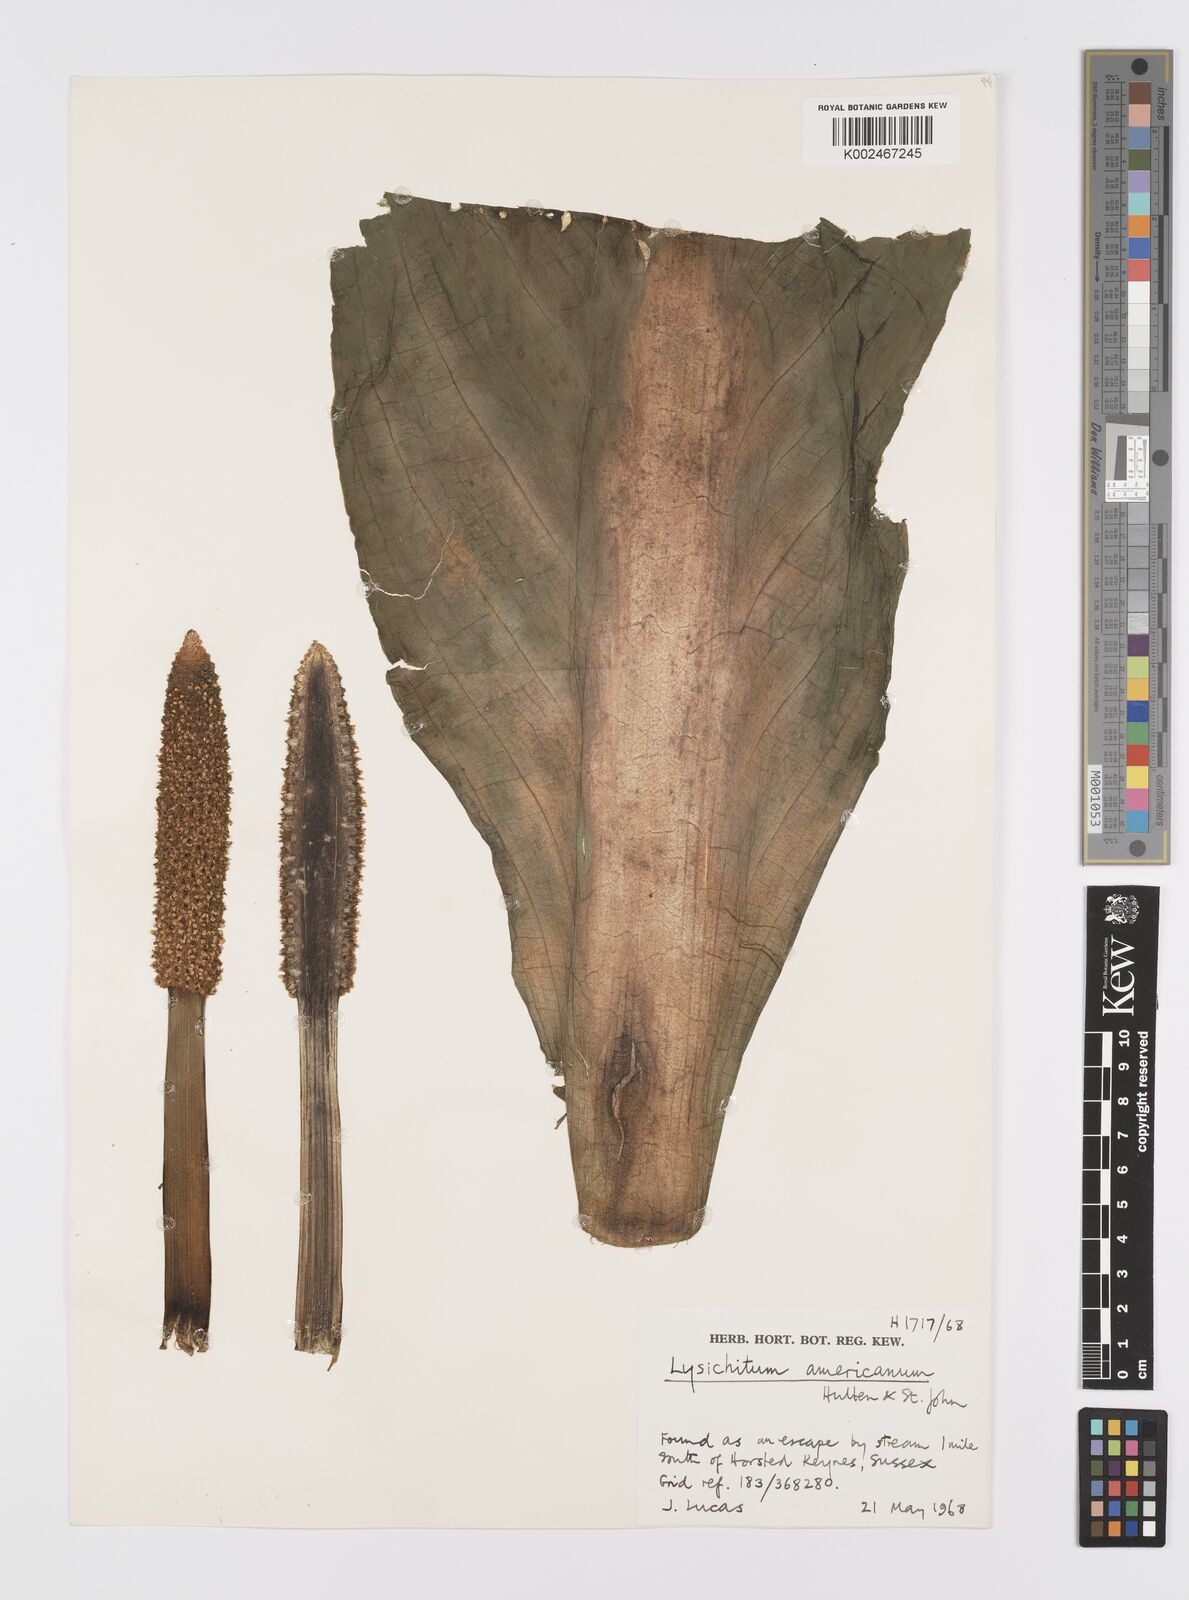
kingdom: Plantae
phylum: Tracheophyta
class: Liliopsida
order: Alismatales
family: Araceae
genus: Lysichiton
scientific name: Lysichiton americanus
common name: American skunk cabbage
